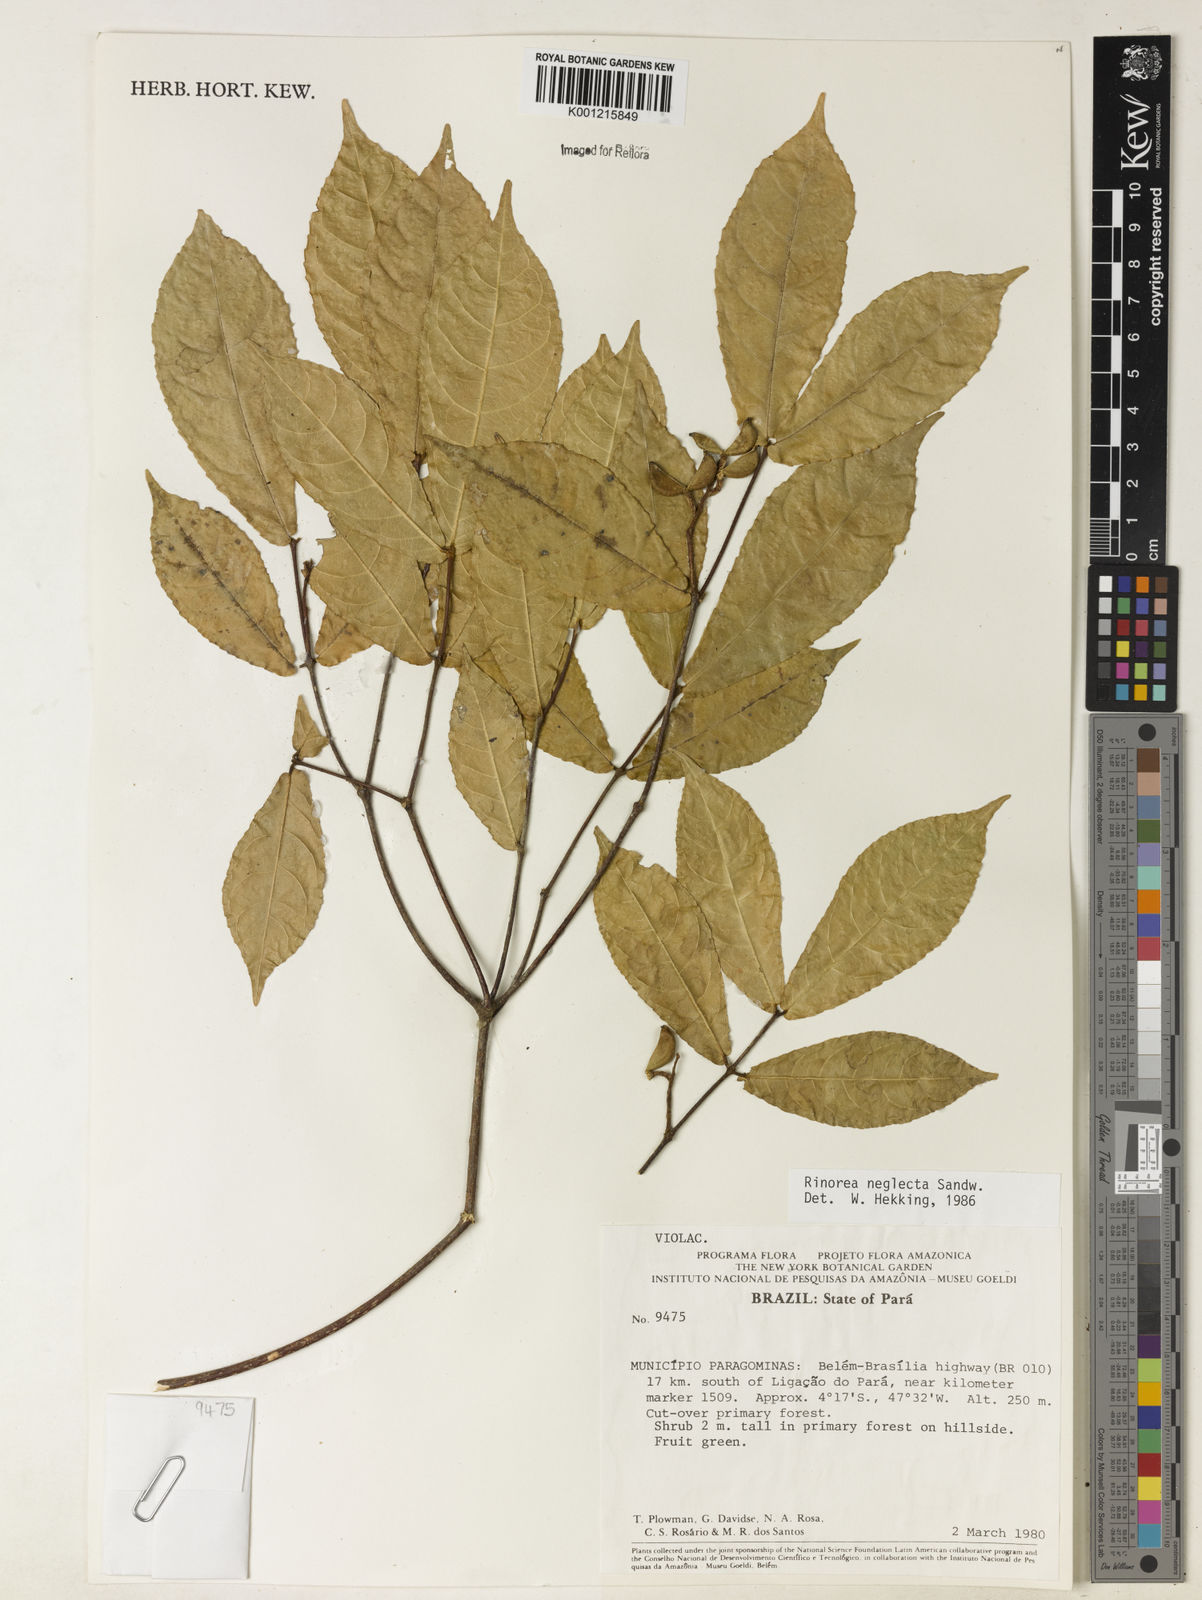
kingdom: Plantae
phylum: Tracheophyta
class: Magnoliopsida
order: Malpighiales
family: Violaceae
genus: Rinorea
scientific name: Rinorea neglecta
